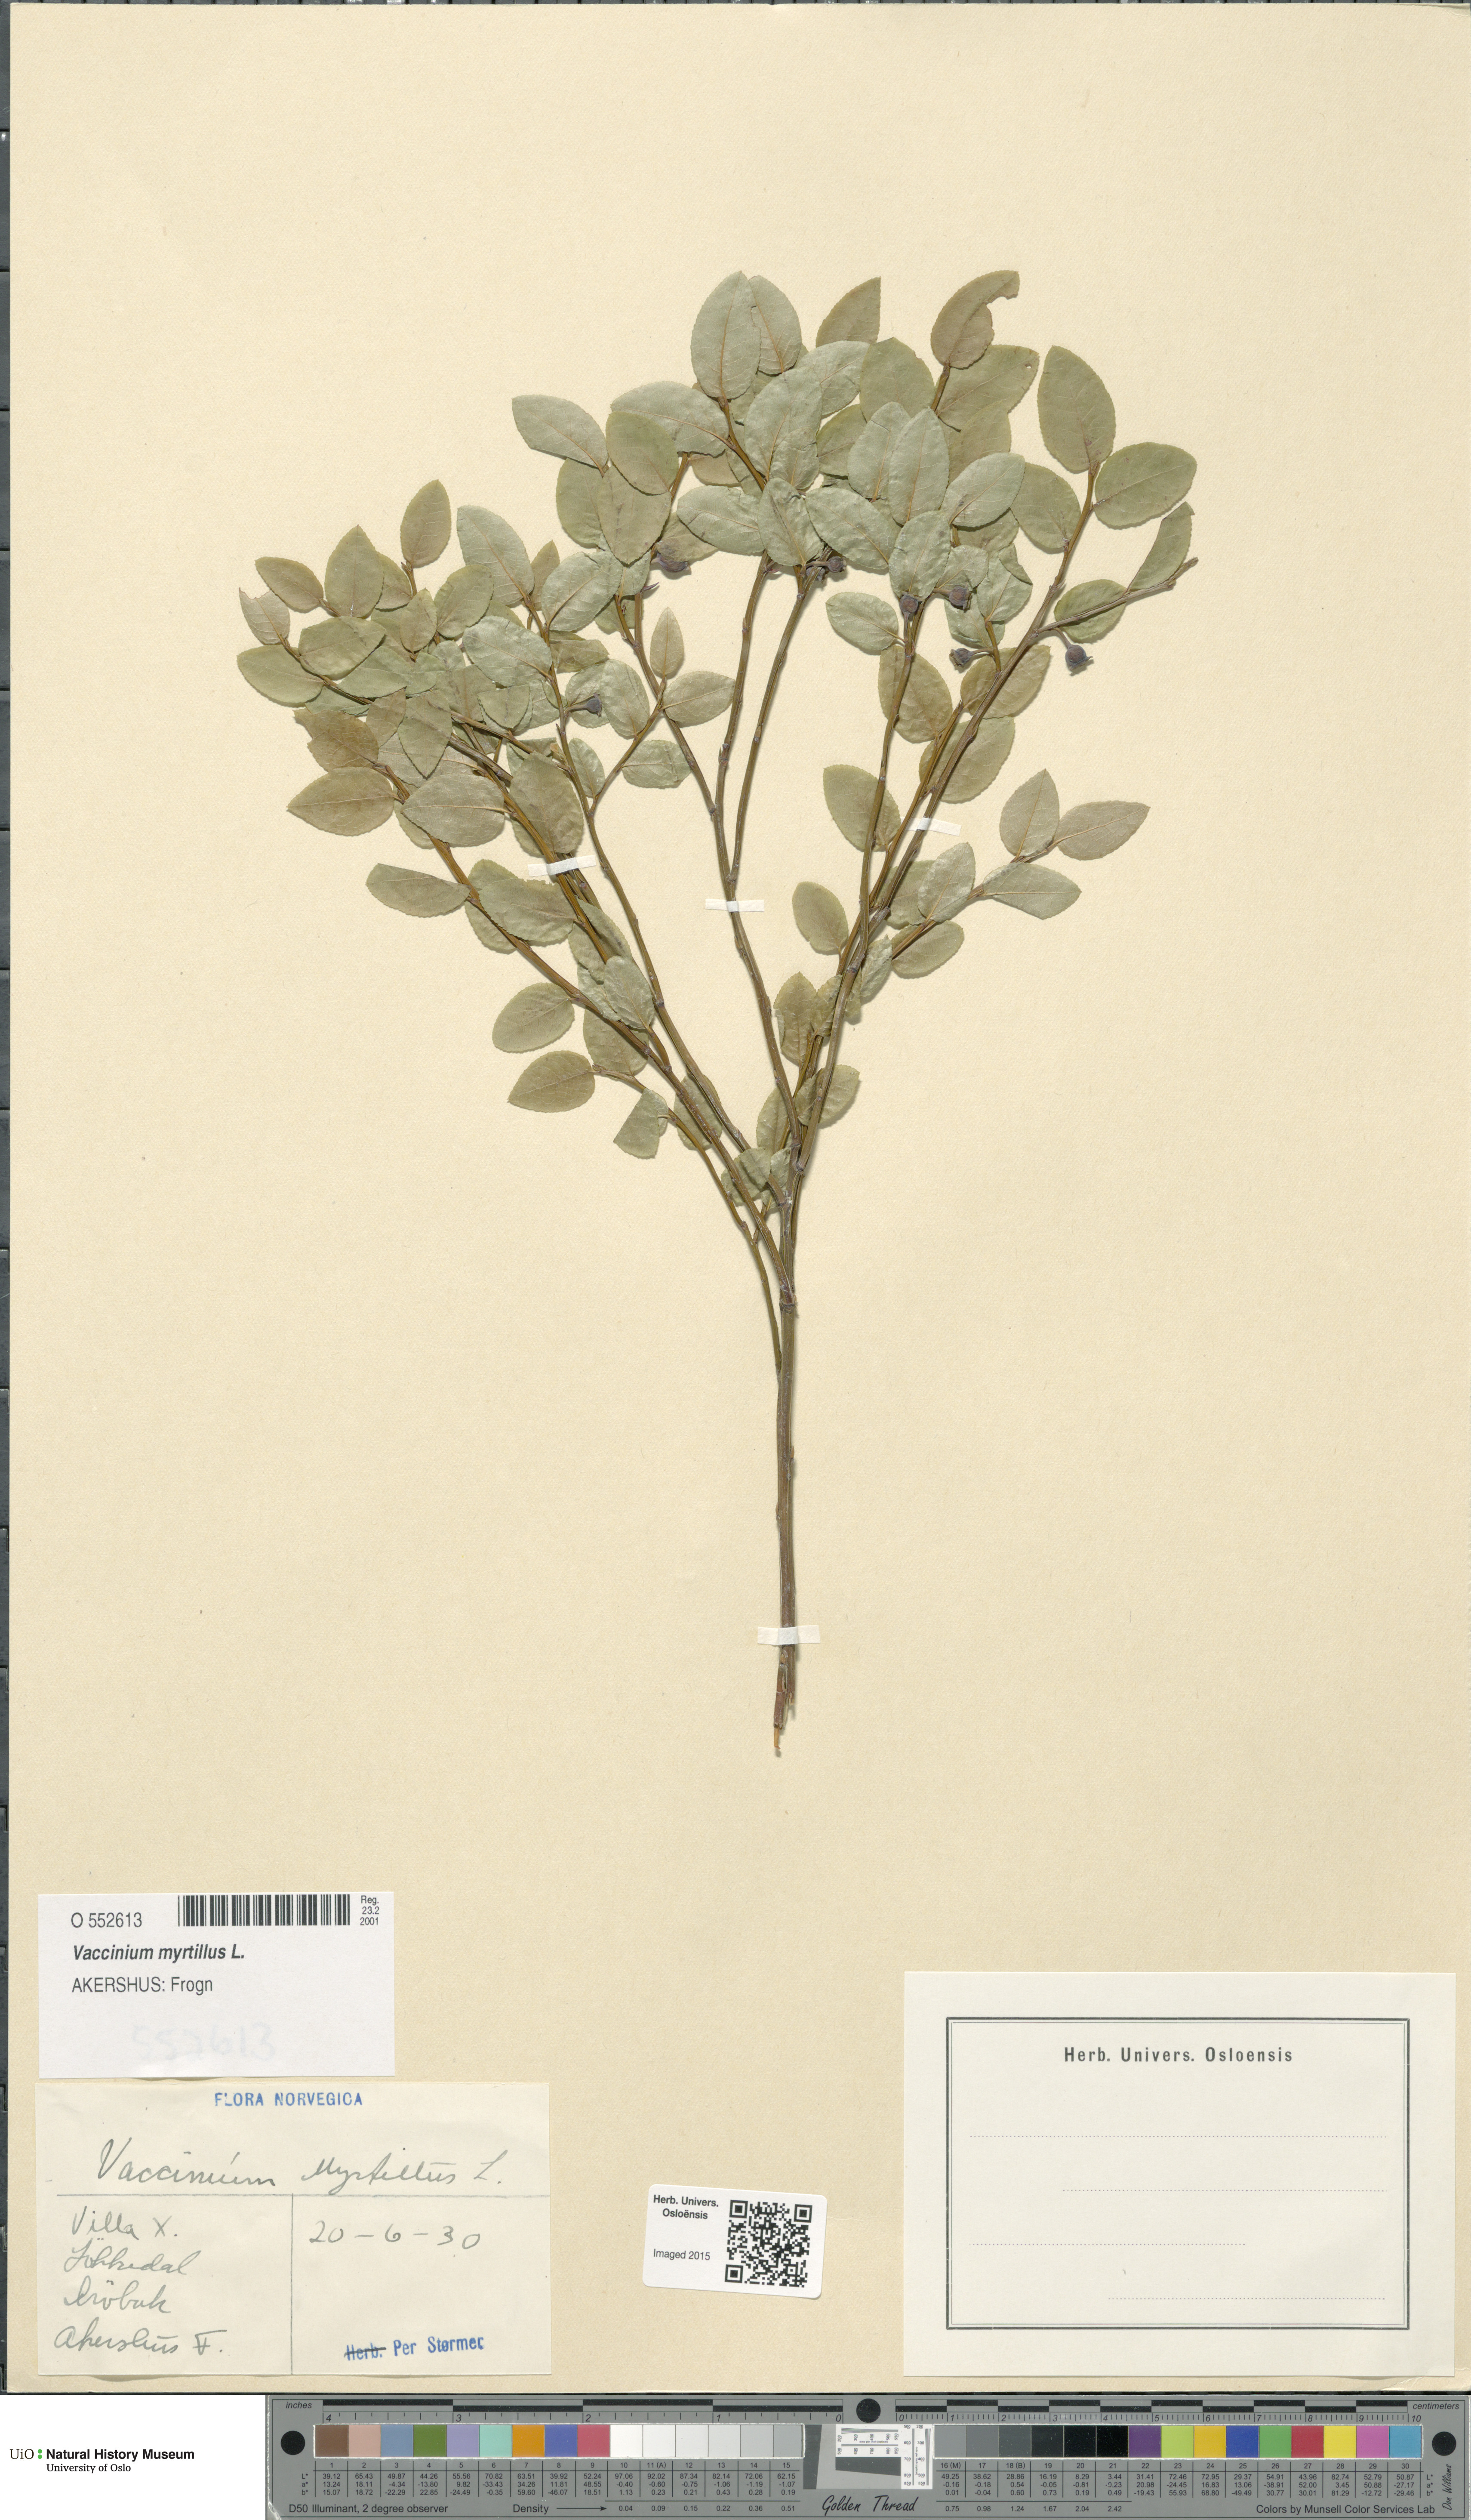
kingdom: Plantae
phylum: Tracheophyta
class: Magnoliopsida
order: Ericales
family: Ericaceae
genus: Vaccinium
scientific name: Vaccinium myrtillus
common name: Bilberry
